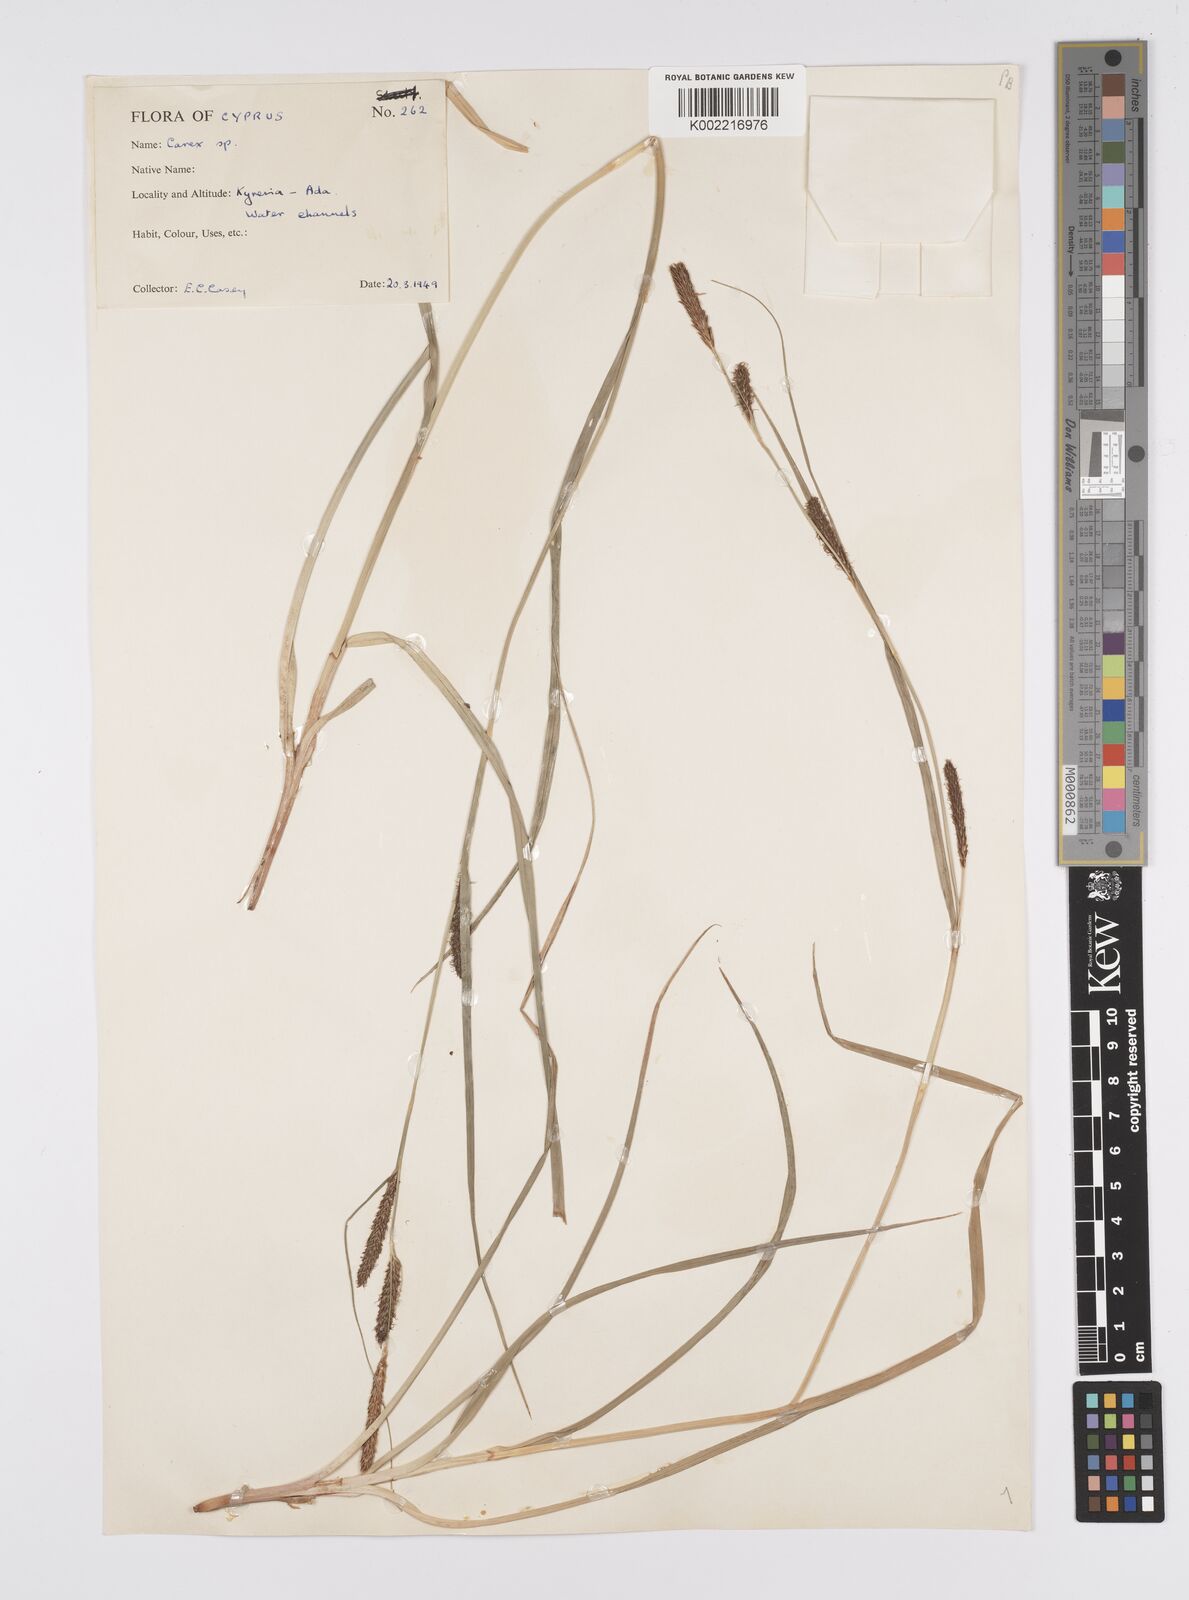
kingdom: Plantae
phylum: Tracheophyta
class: Liliopsida
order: Poales
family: Cyperaceae
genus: Carex
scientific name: Carex distans
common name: Distant sedge
